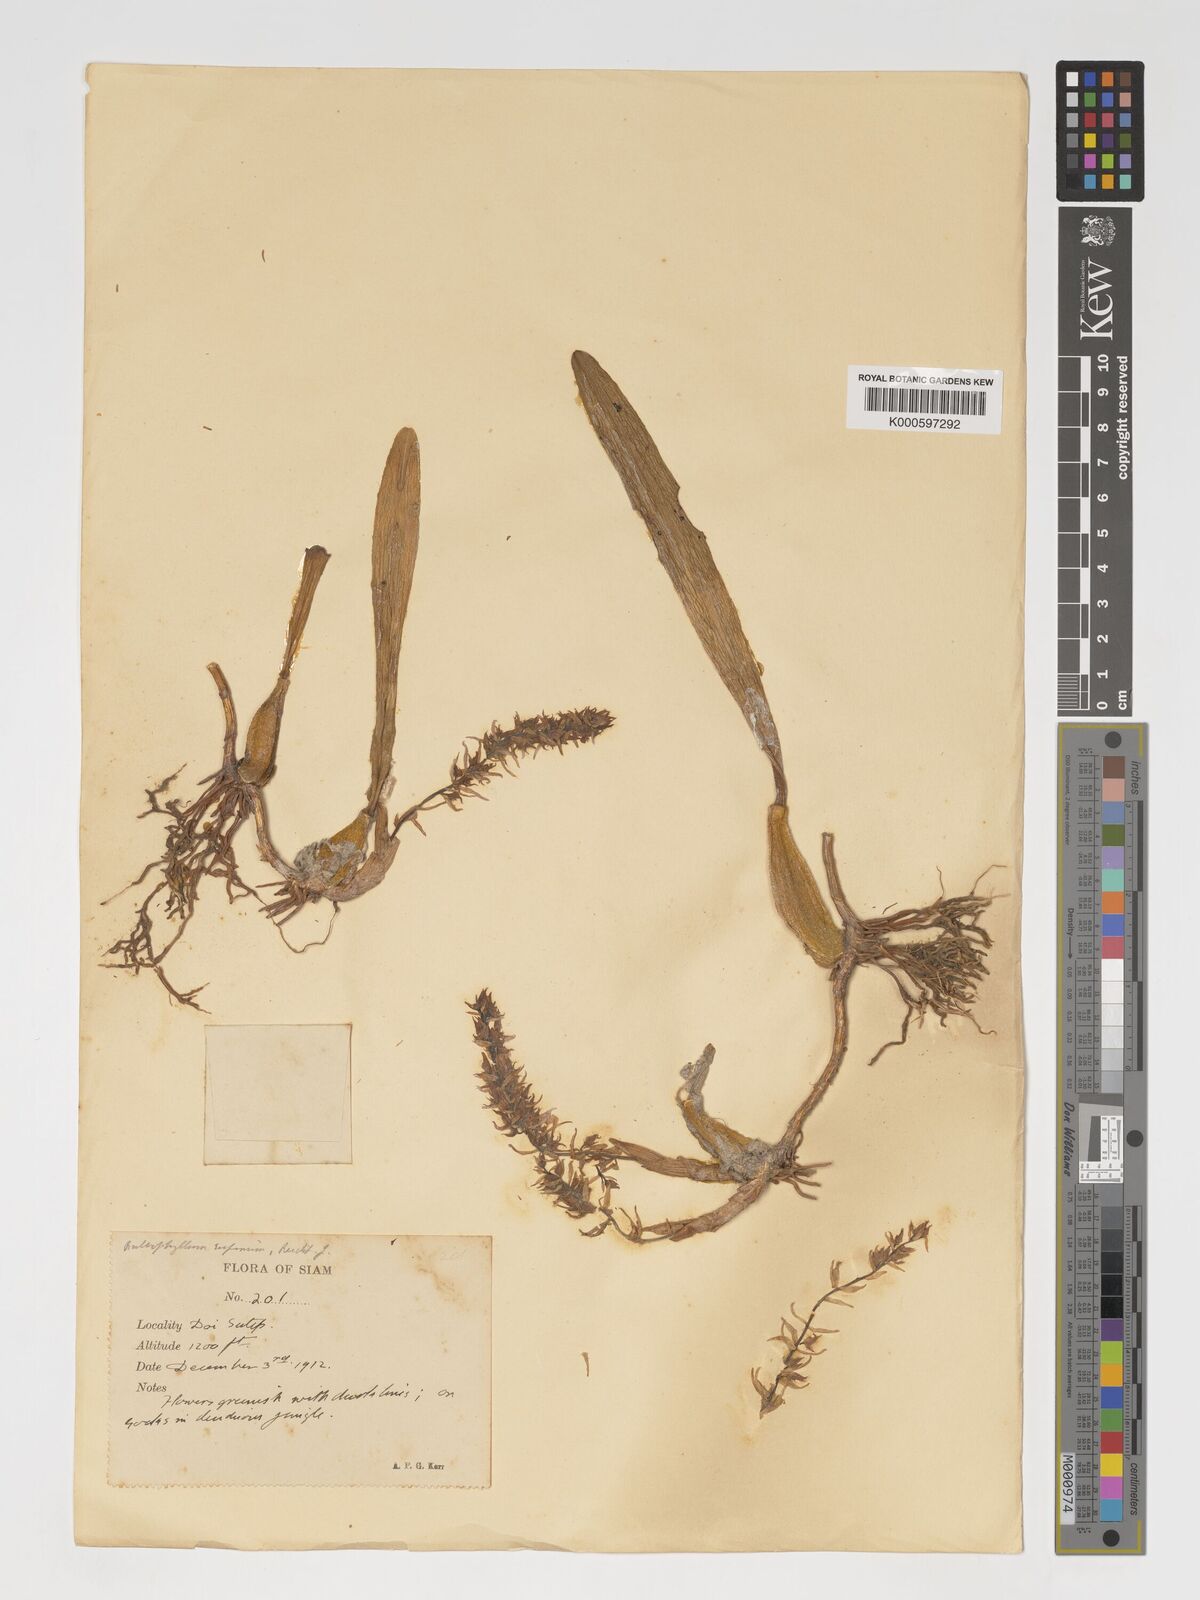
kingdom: Plantae
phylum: Tracheophyta
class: Liliopsida
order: Asparagales
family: Orchidaceae
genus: Bulbophyllum
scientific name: Bulbophyllum rufinum
